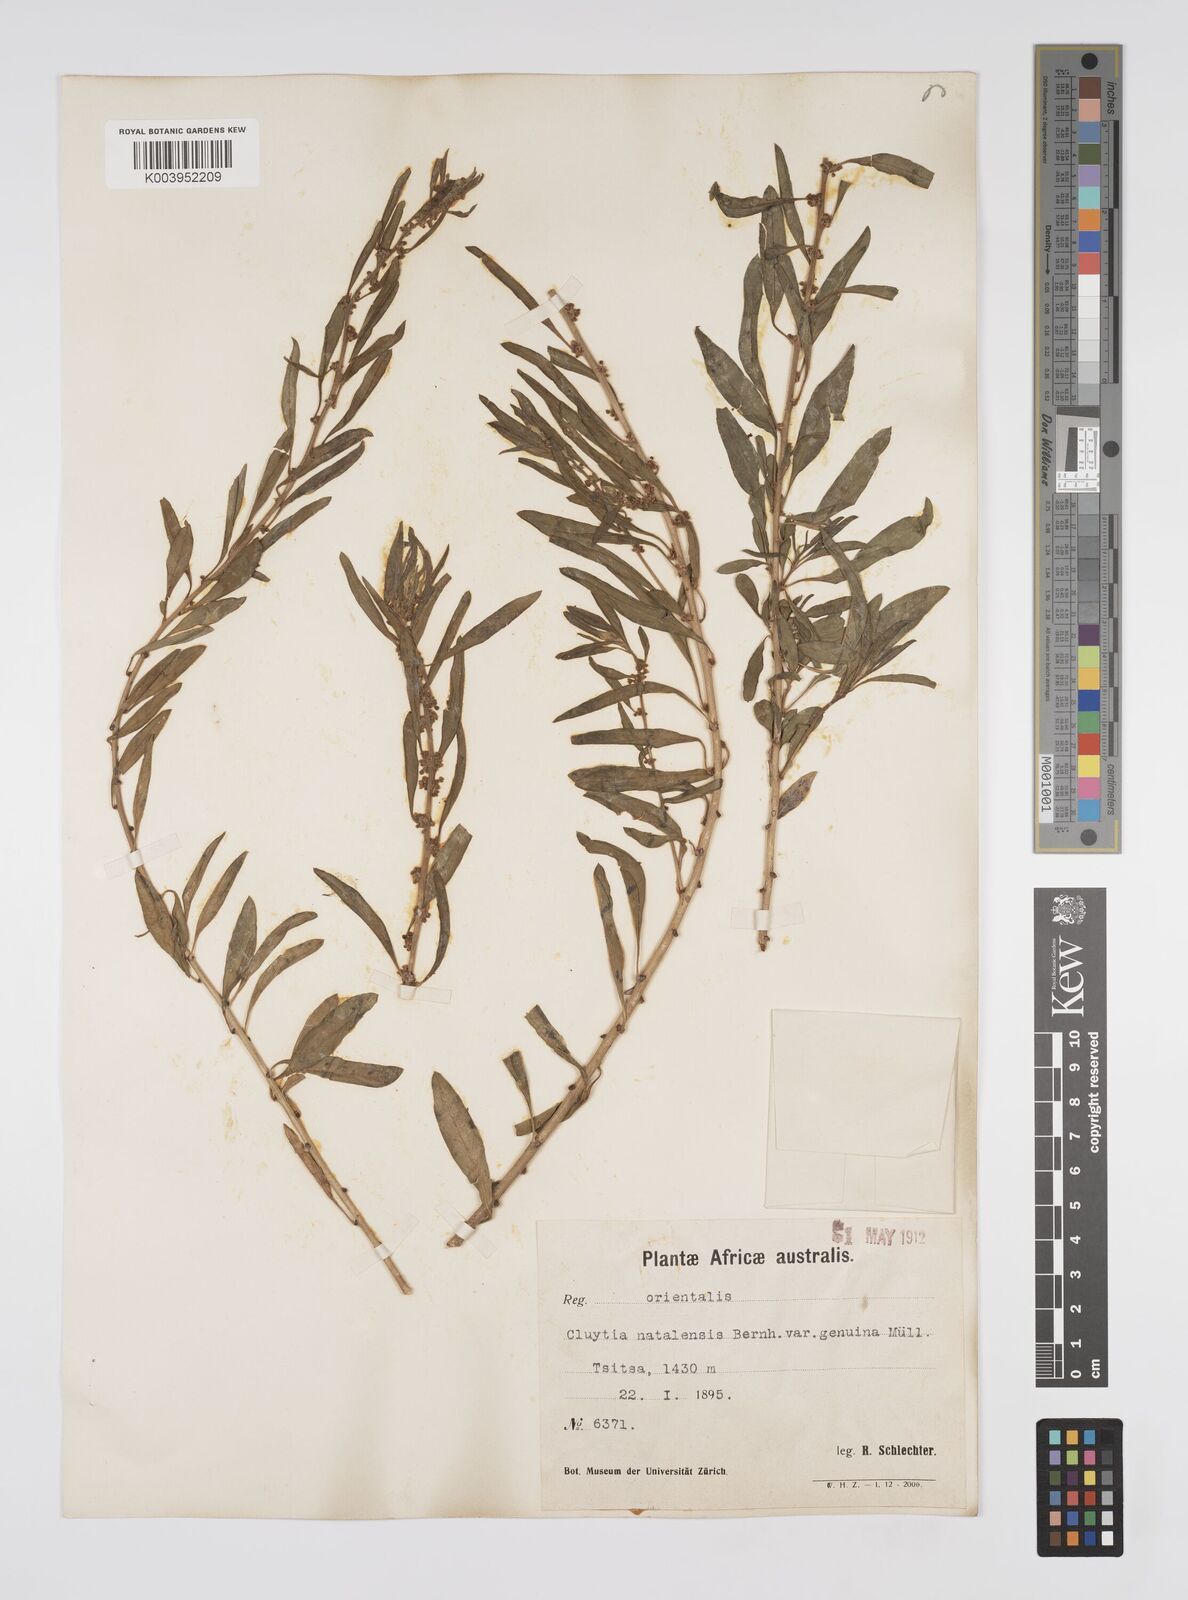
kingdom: Plantae
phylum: Tracheophyta
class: Magnoliopsida
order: Malpighiales
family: Peraceae
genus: Clutia
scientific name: Clutia natalensis
